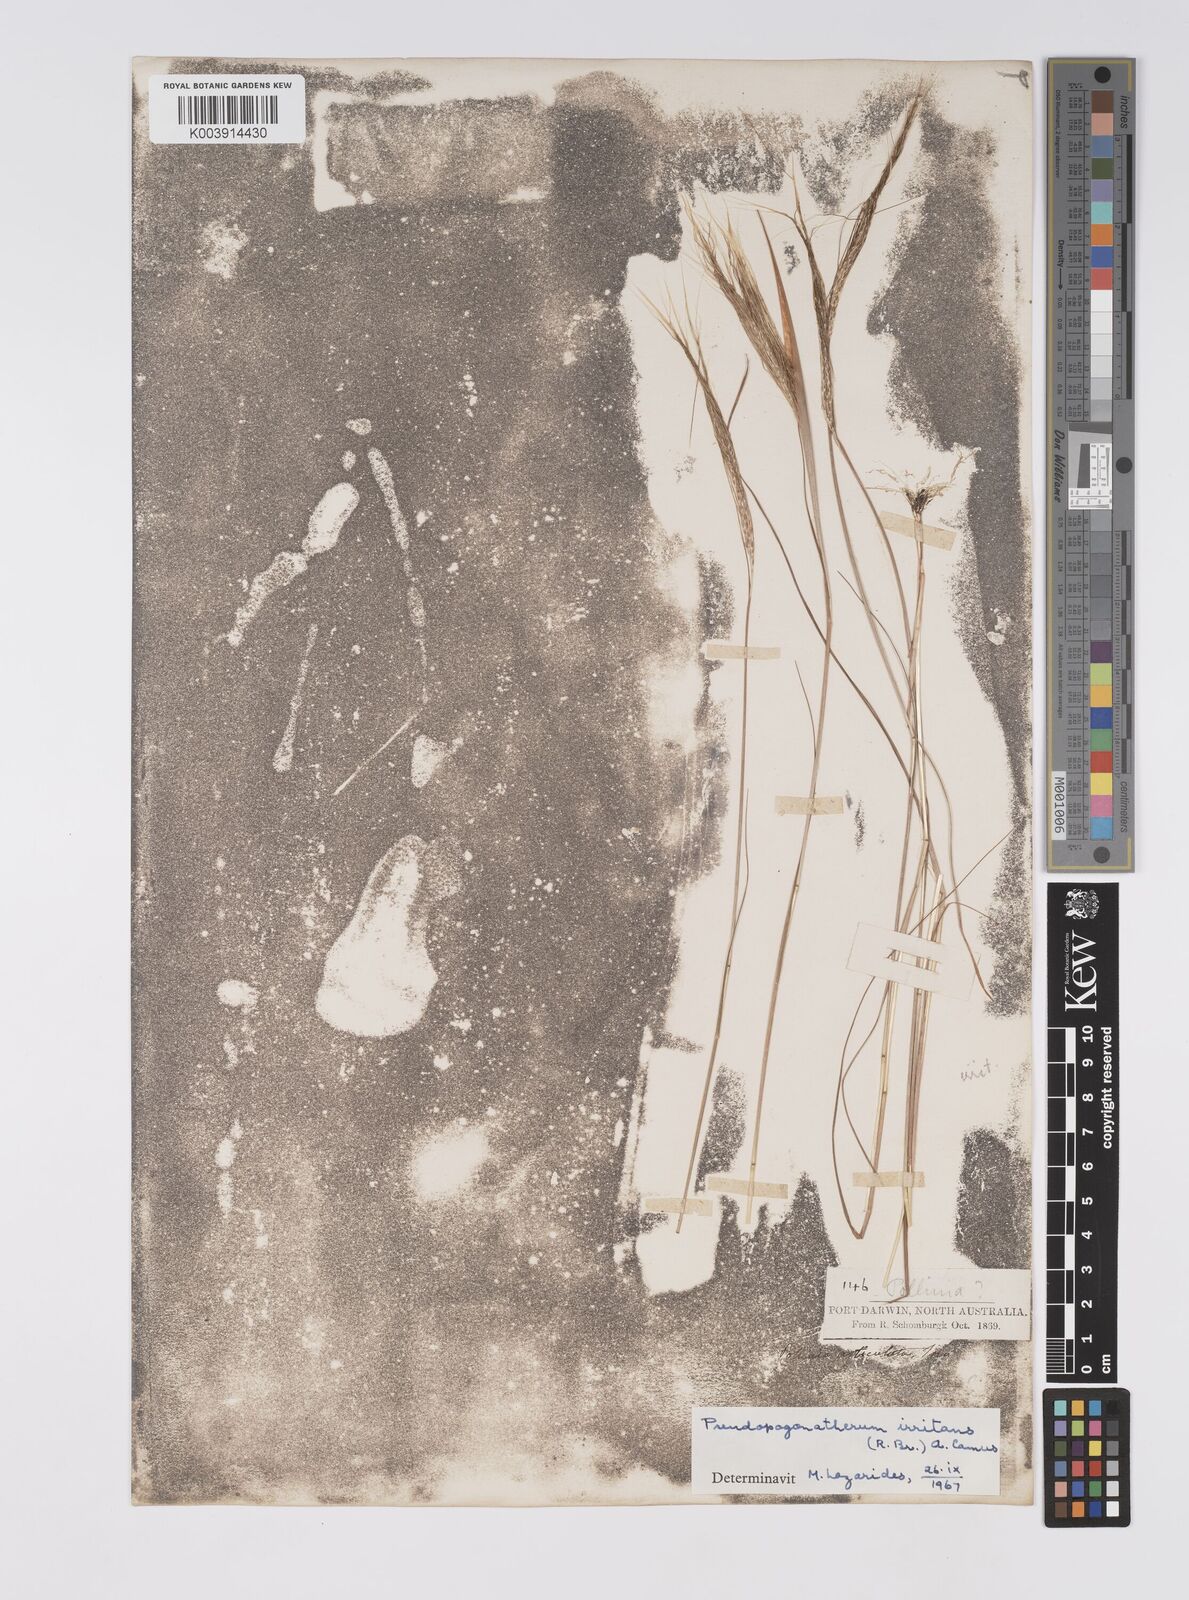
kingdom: Plantae
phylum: Tracheophyta
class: Liliopsida
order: Poales
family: Poaceae
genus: Pseudopogonatherum
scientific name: Pseudopogonatherum irritans
